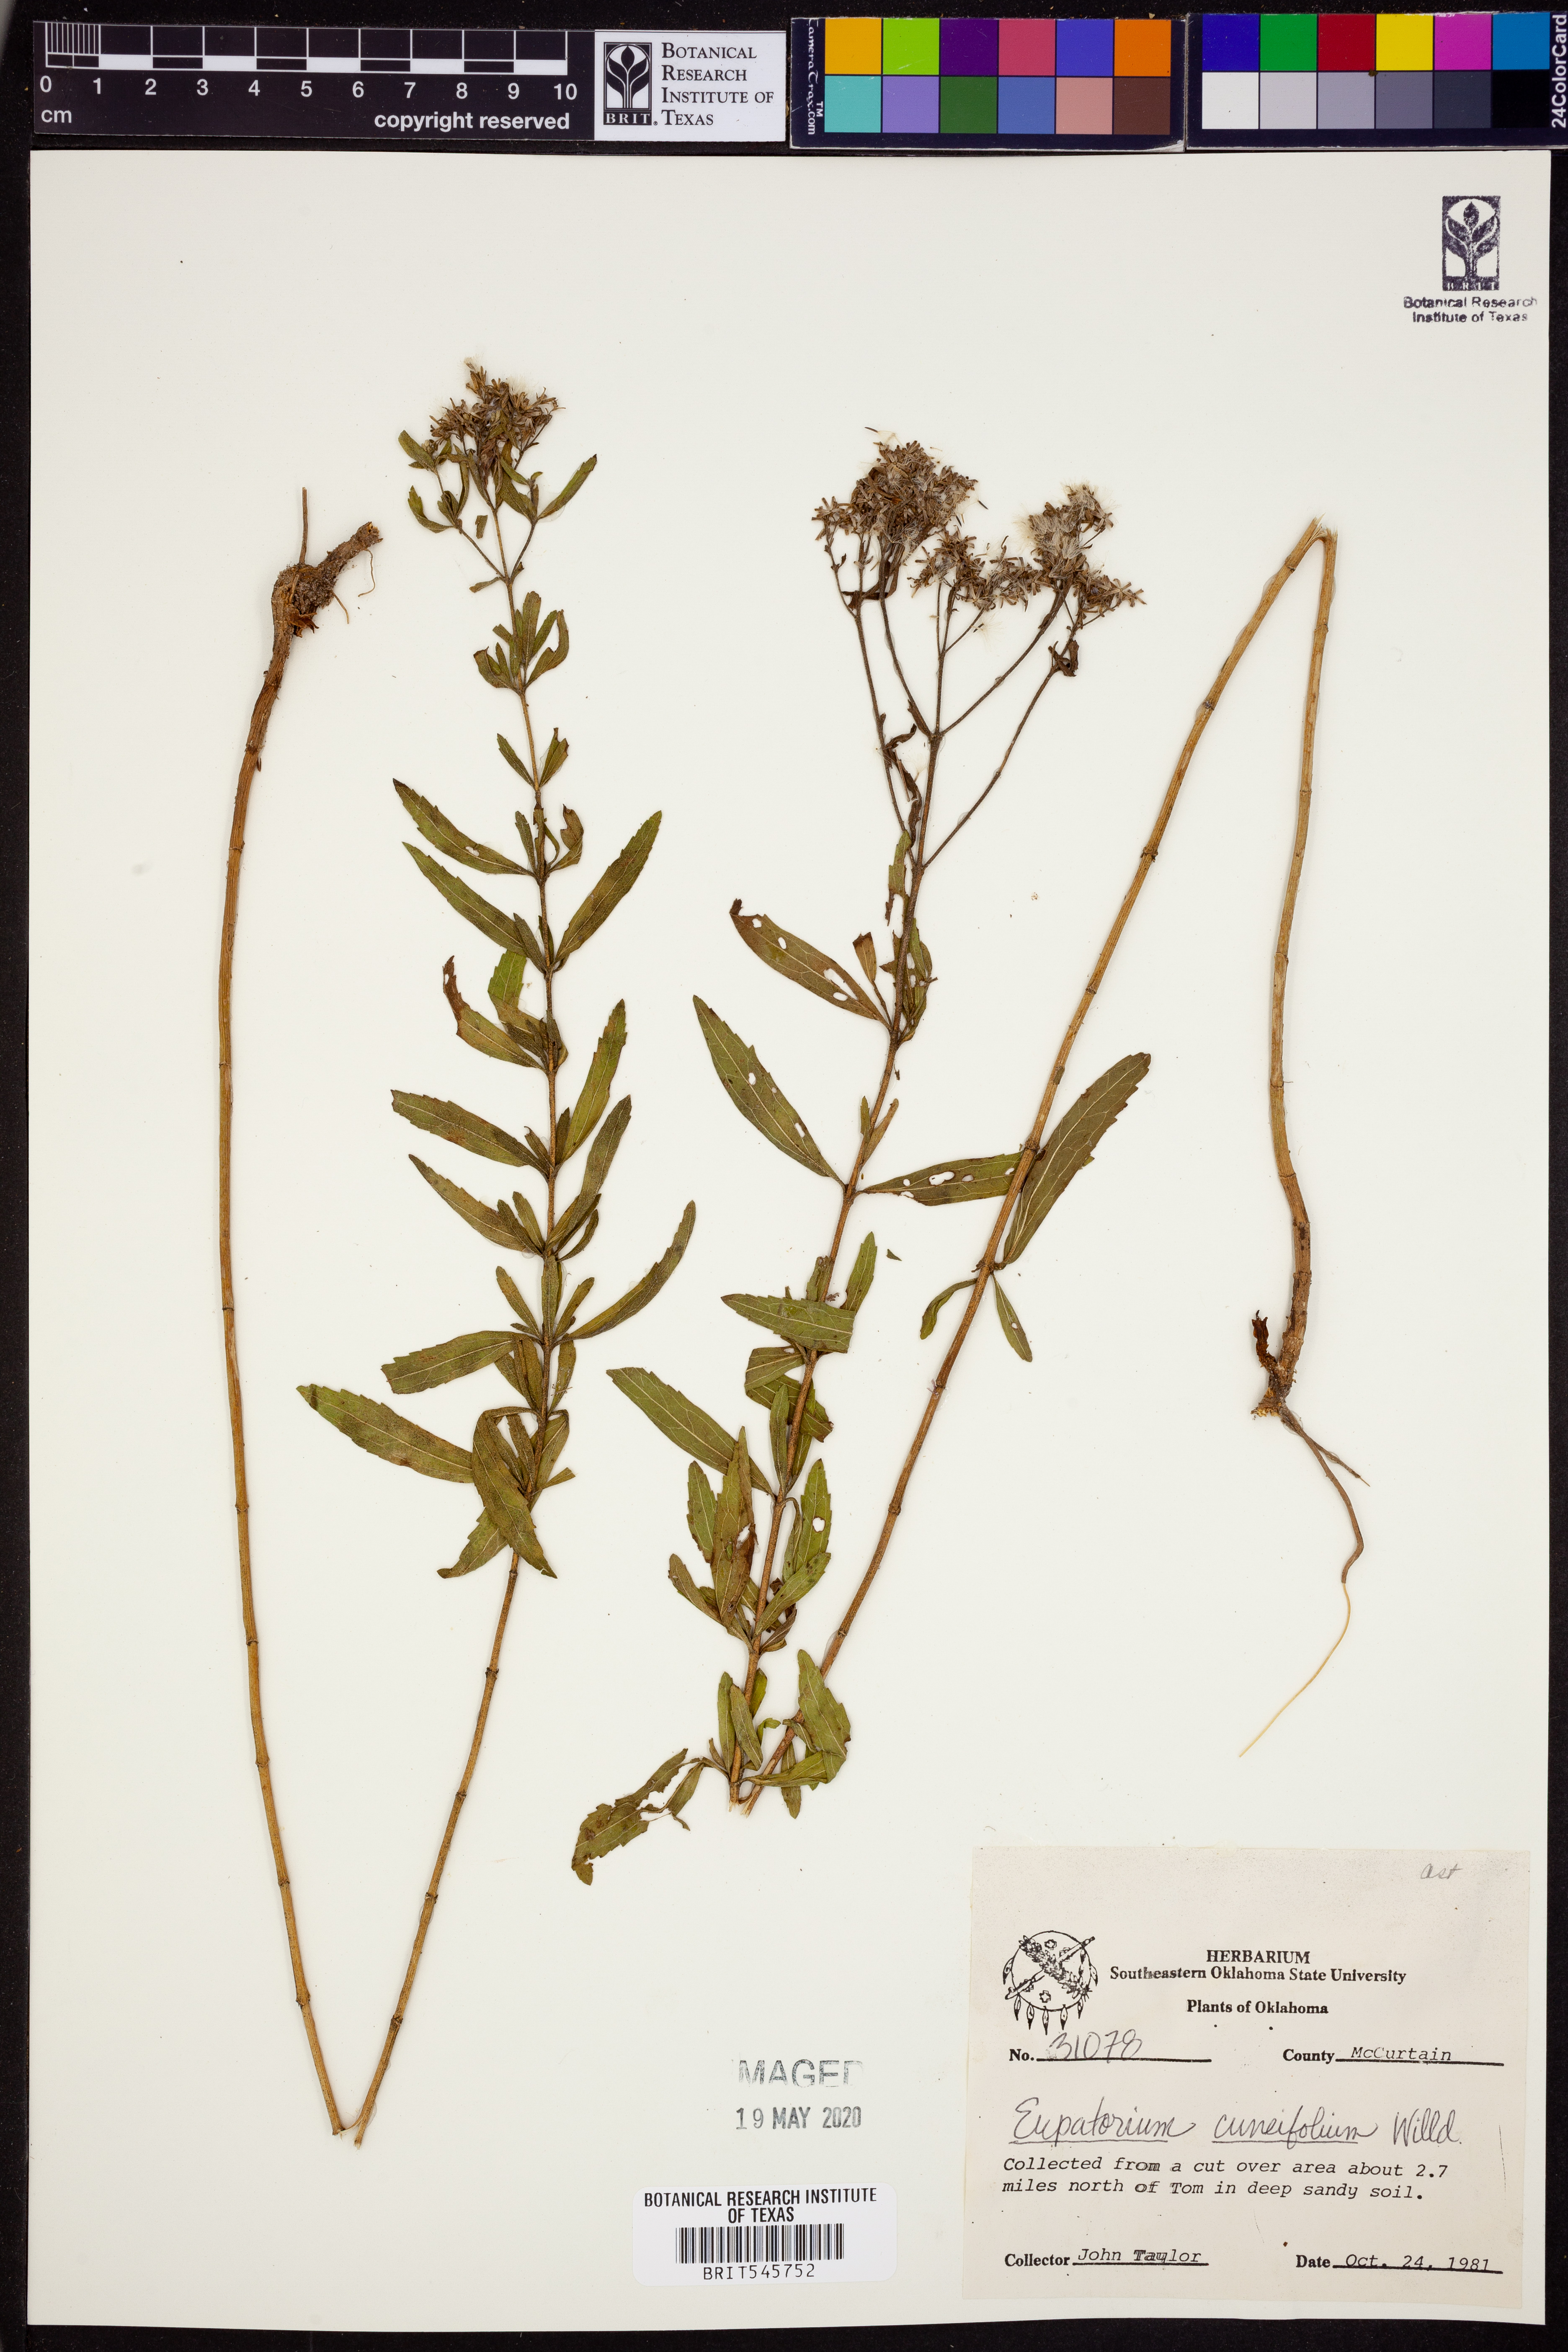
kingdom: Plantae
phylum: Tracheophyta
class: Magnoliopsida
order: Asterales
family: Asteraceae
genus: Eupatorium
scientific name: Eupatorium linearifolium
